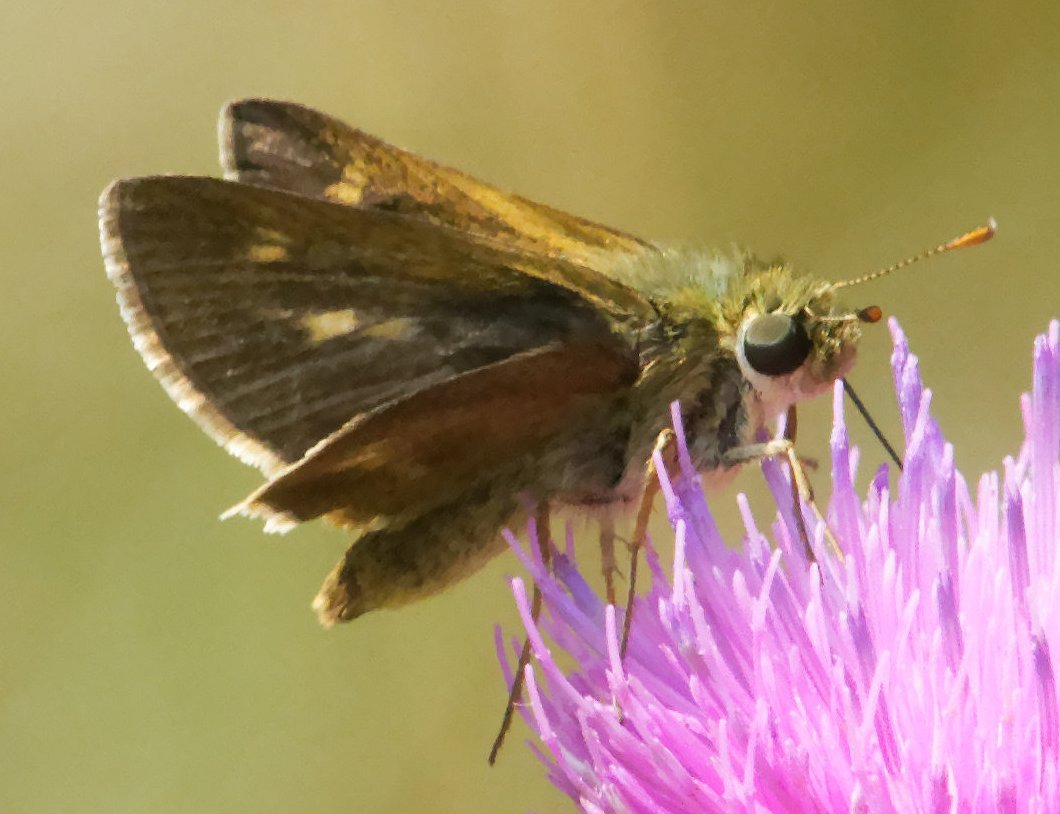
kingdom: Animalia
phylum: Arthropoda
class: Insecta
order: Lepidoptera
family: Hesperiidae
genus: Polites
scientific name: Polites egeremet
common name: Northern Broken-Dash
